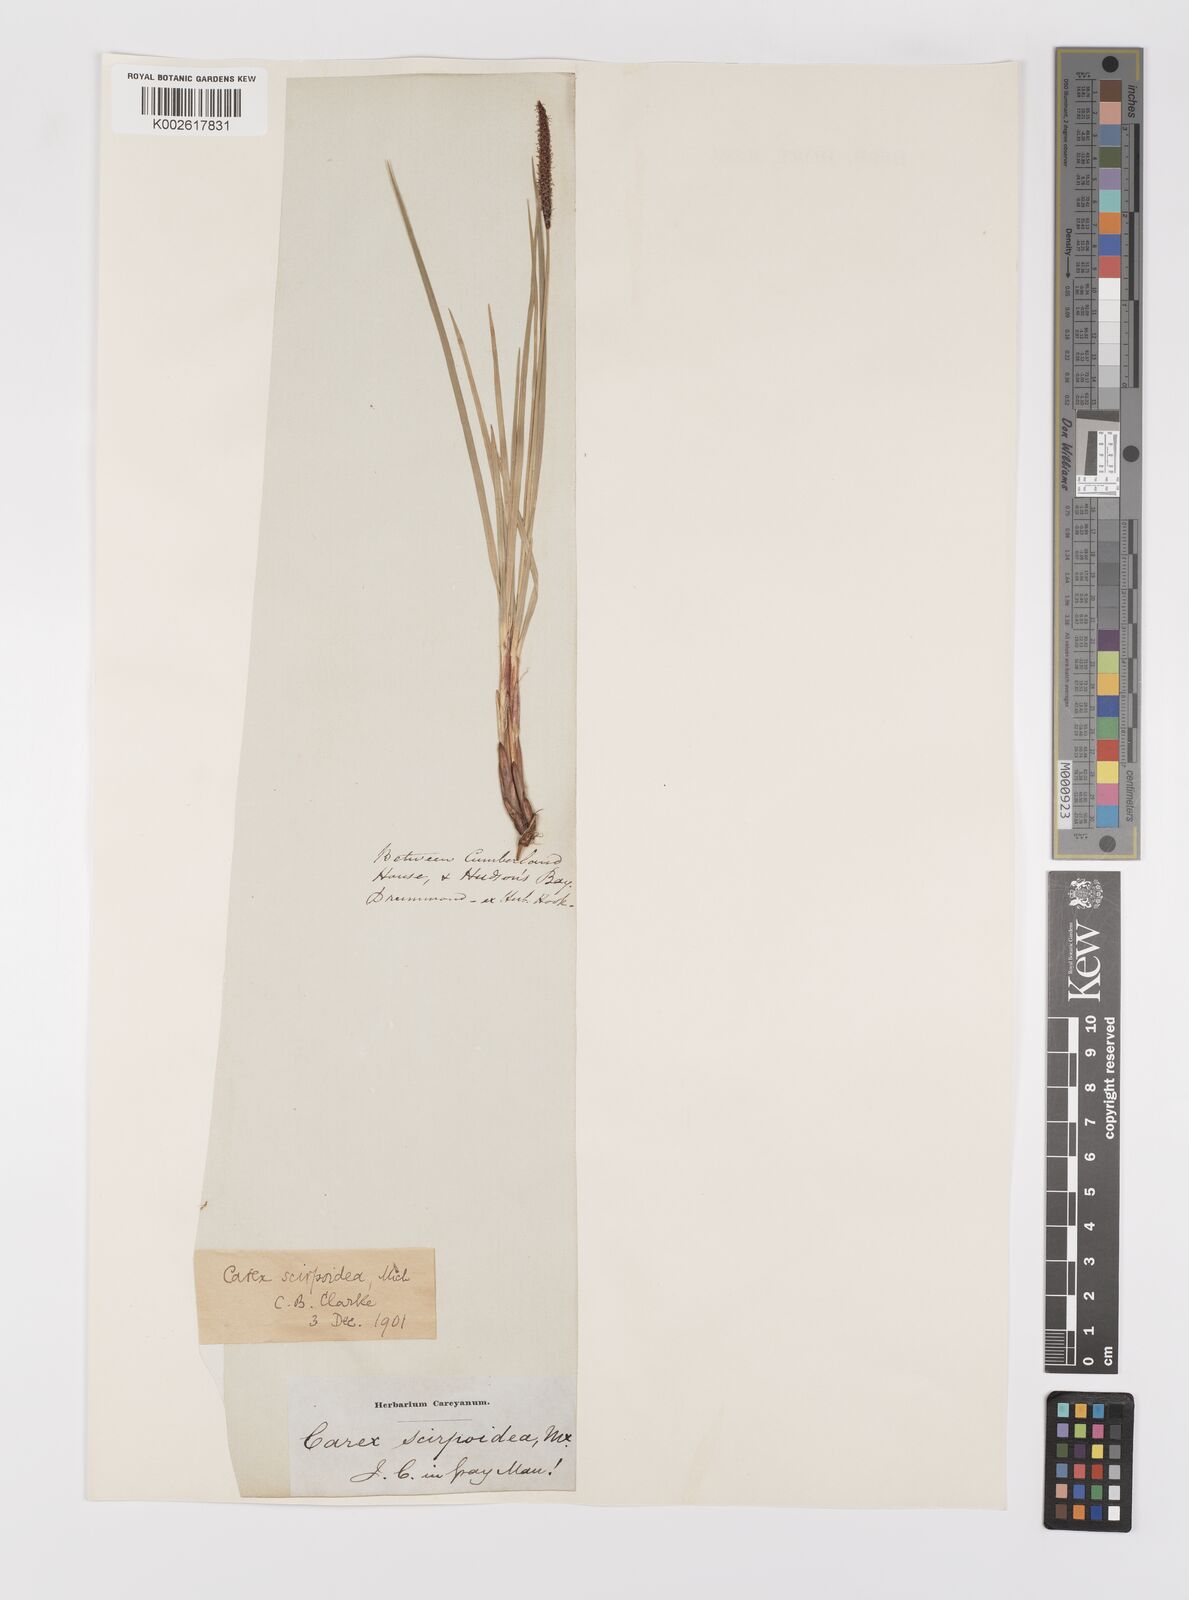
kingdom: Plantae
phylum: Tracheophyta
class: Liliopsida
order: Poales
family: Cyperaceae
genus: Carex
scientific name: Carex scirpoidea
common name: Canada single-spike sedge
